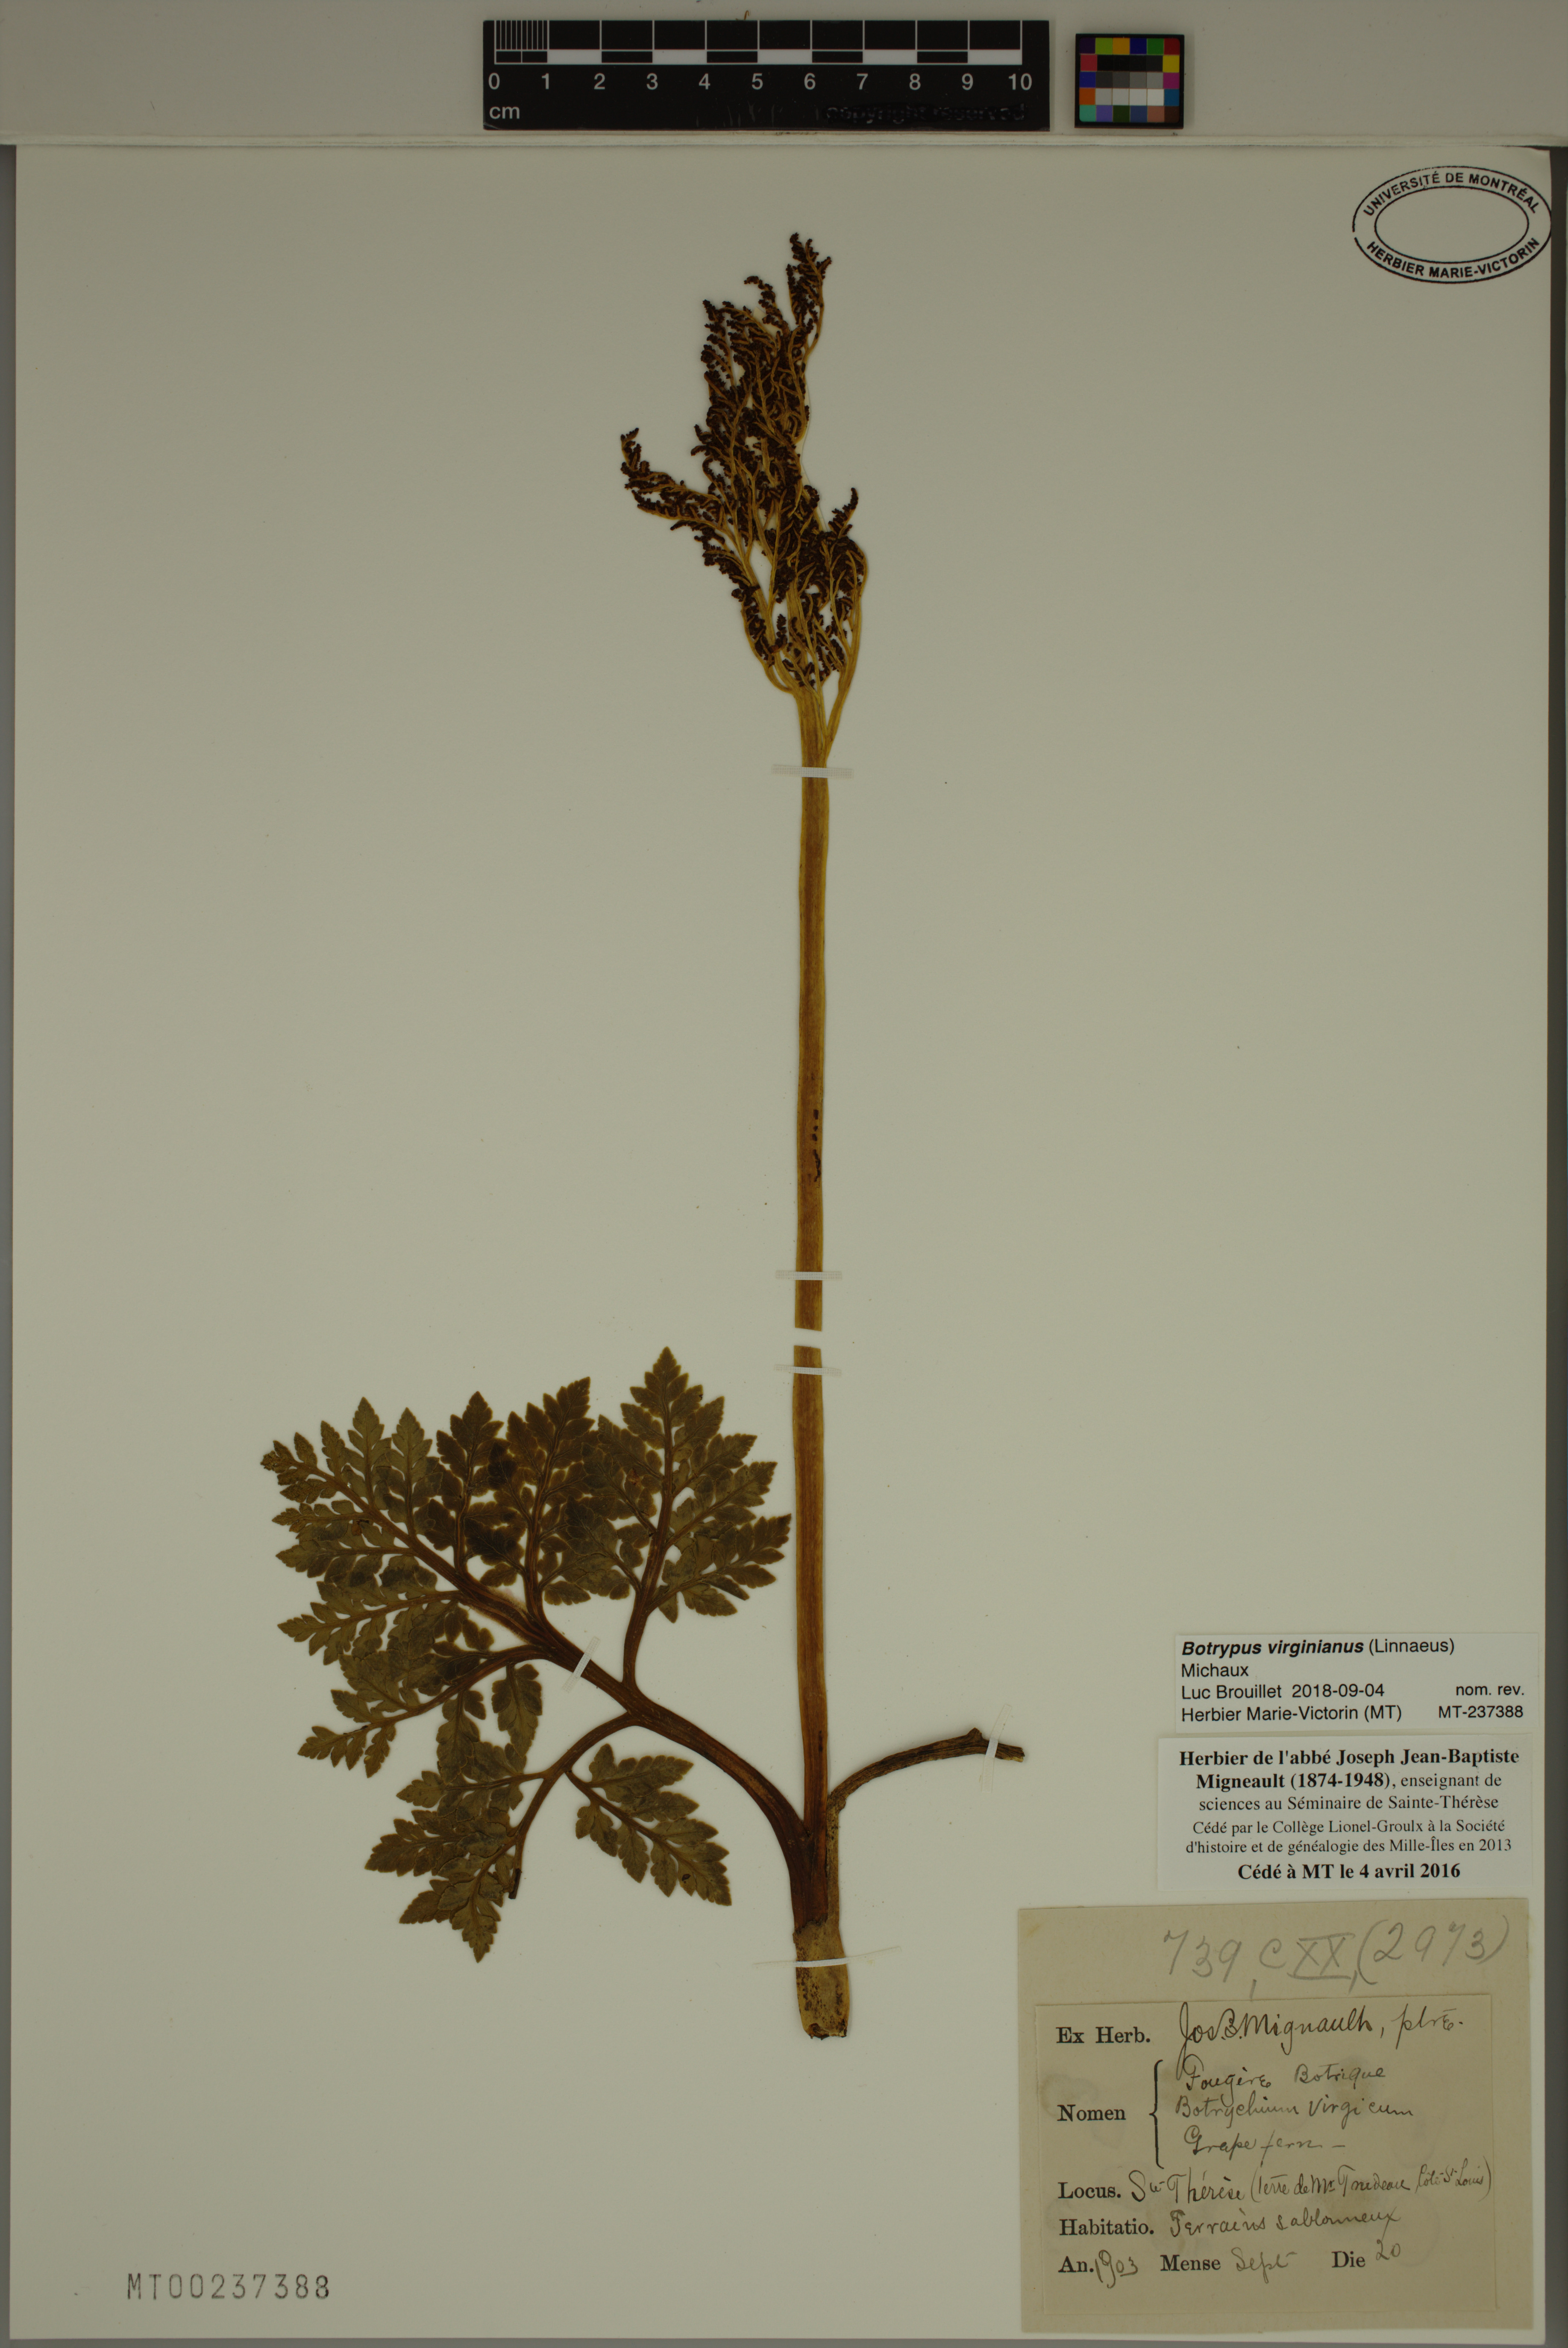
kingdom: Plantae
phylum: Tracheophyta
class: Polypodiopsida
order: Ophioglossales
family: Ophioglossaceae
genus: Botrypus
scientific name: Botrypus virginianus
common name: Common grapefern
